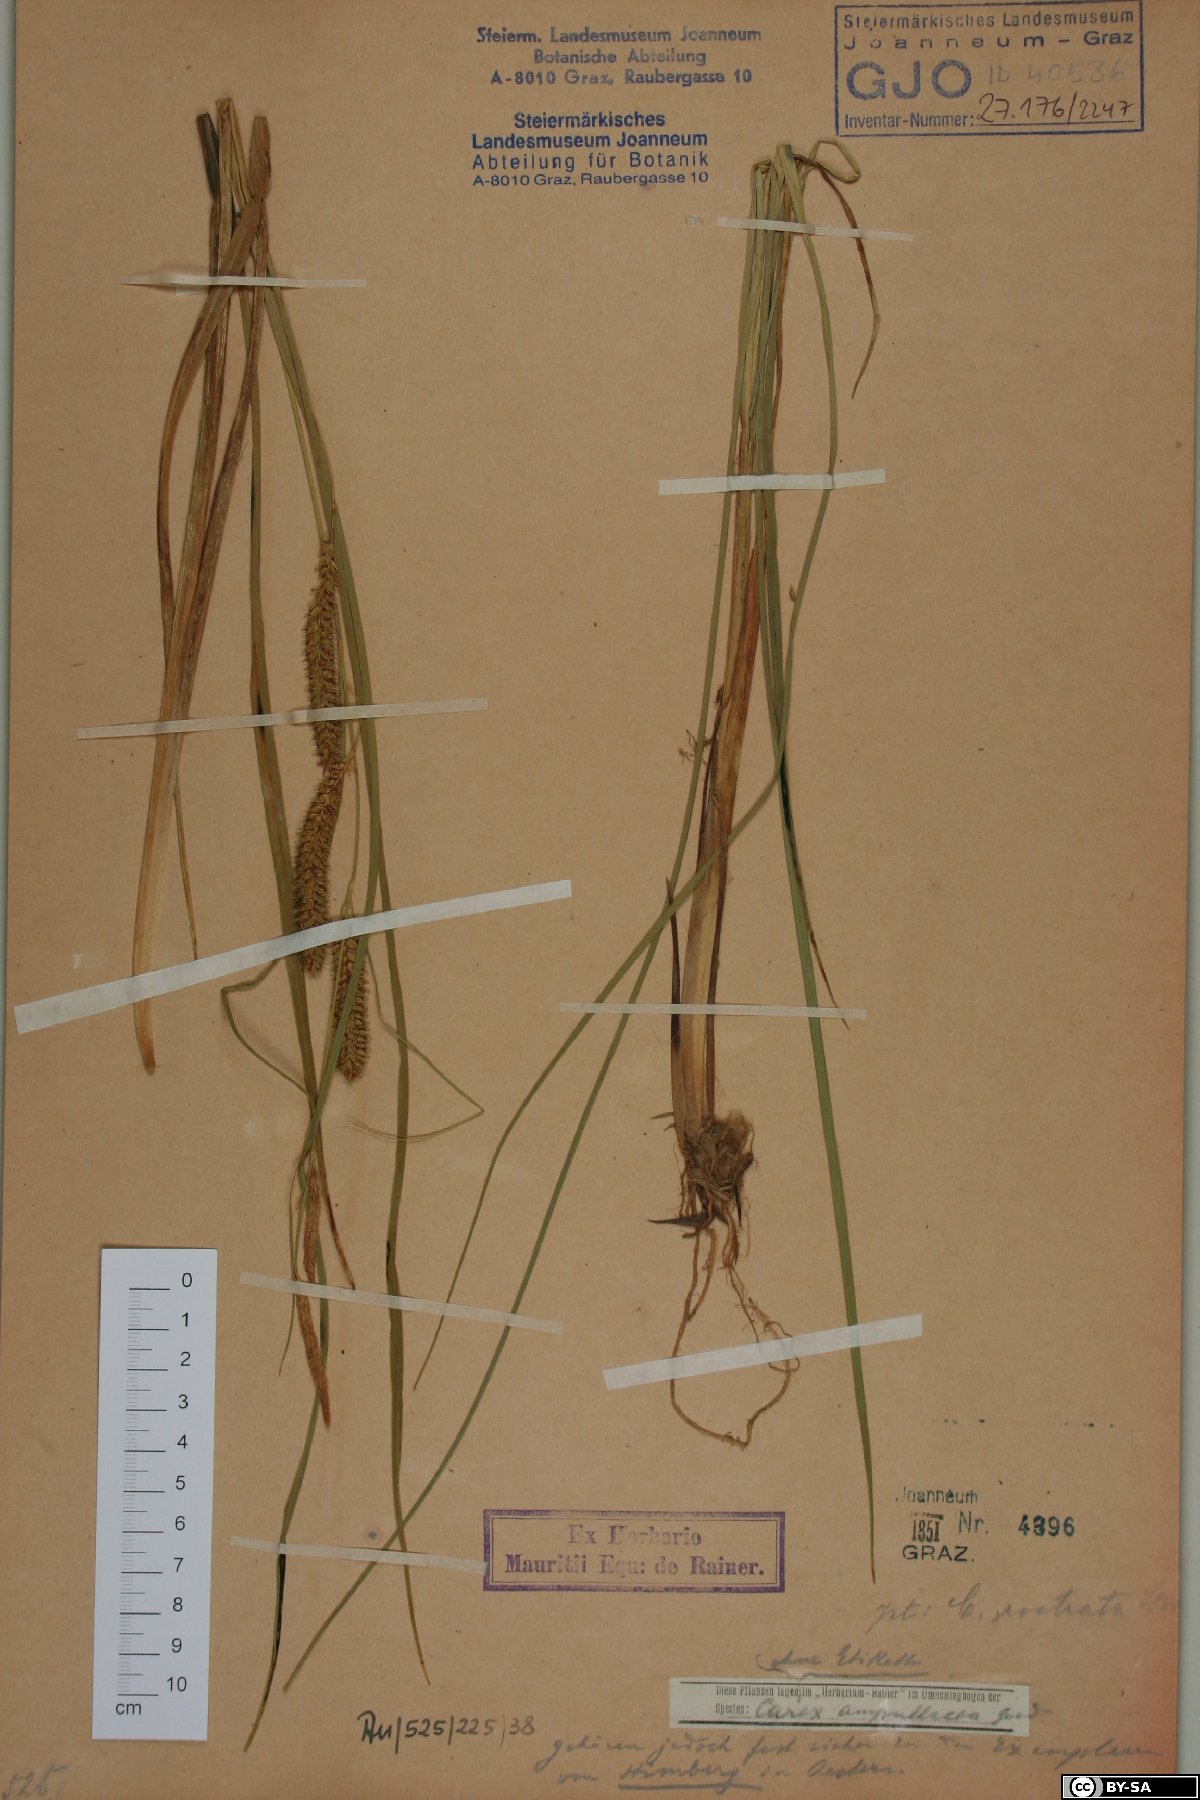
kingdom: Plantae
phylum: Tracheophyta
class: Liliopsida
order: Poales
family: Cyperaceae
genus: Carex
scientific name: Carex rostrata
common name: Bottle sedge
